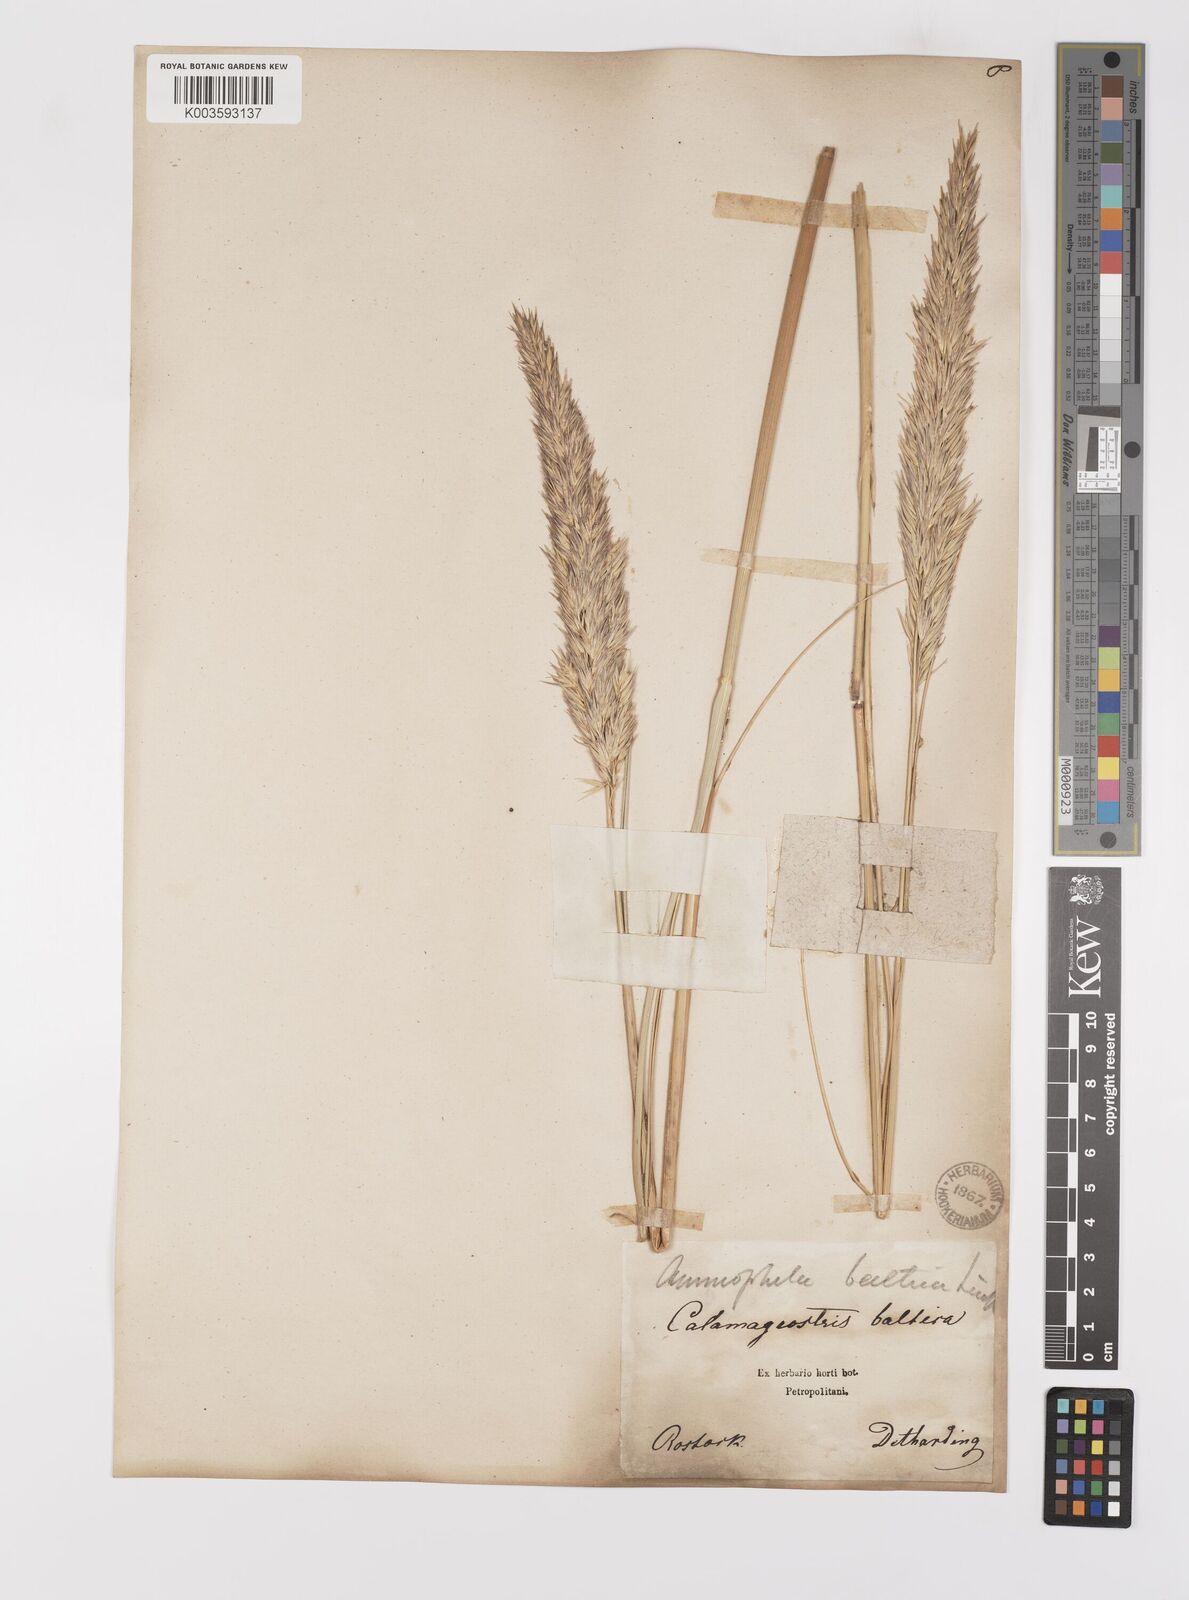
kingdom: Plantae
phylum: Tracheophyta
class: Liliopsida
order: Poales
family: Poaceae
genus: Calamagrostis
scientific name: Calamagrostis baltica
